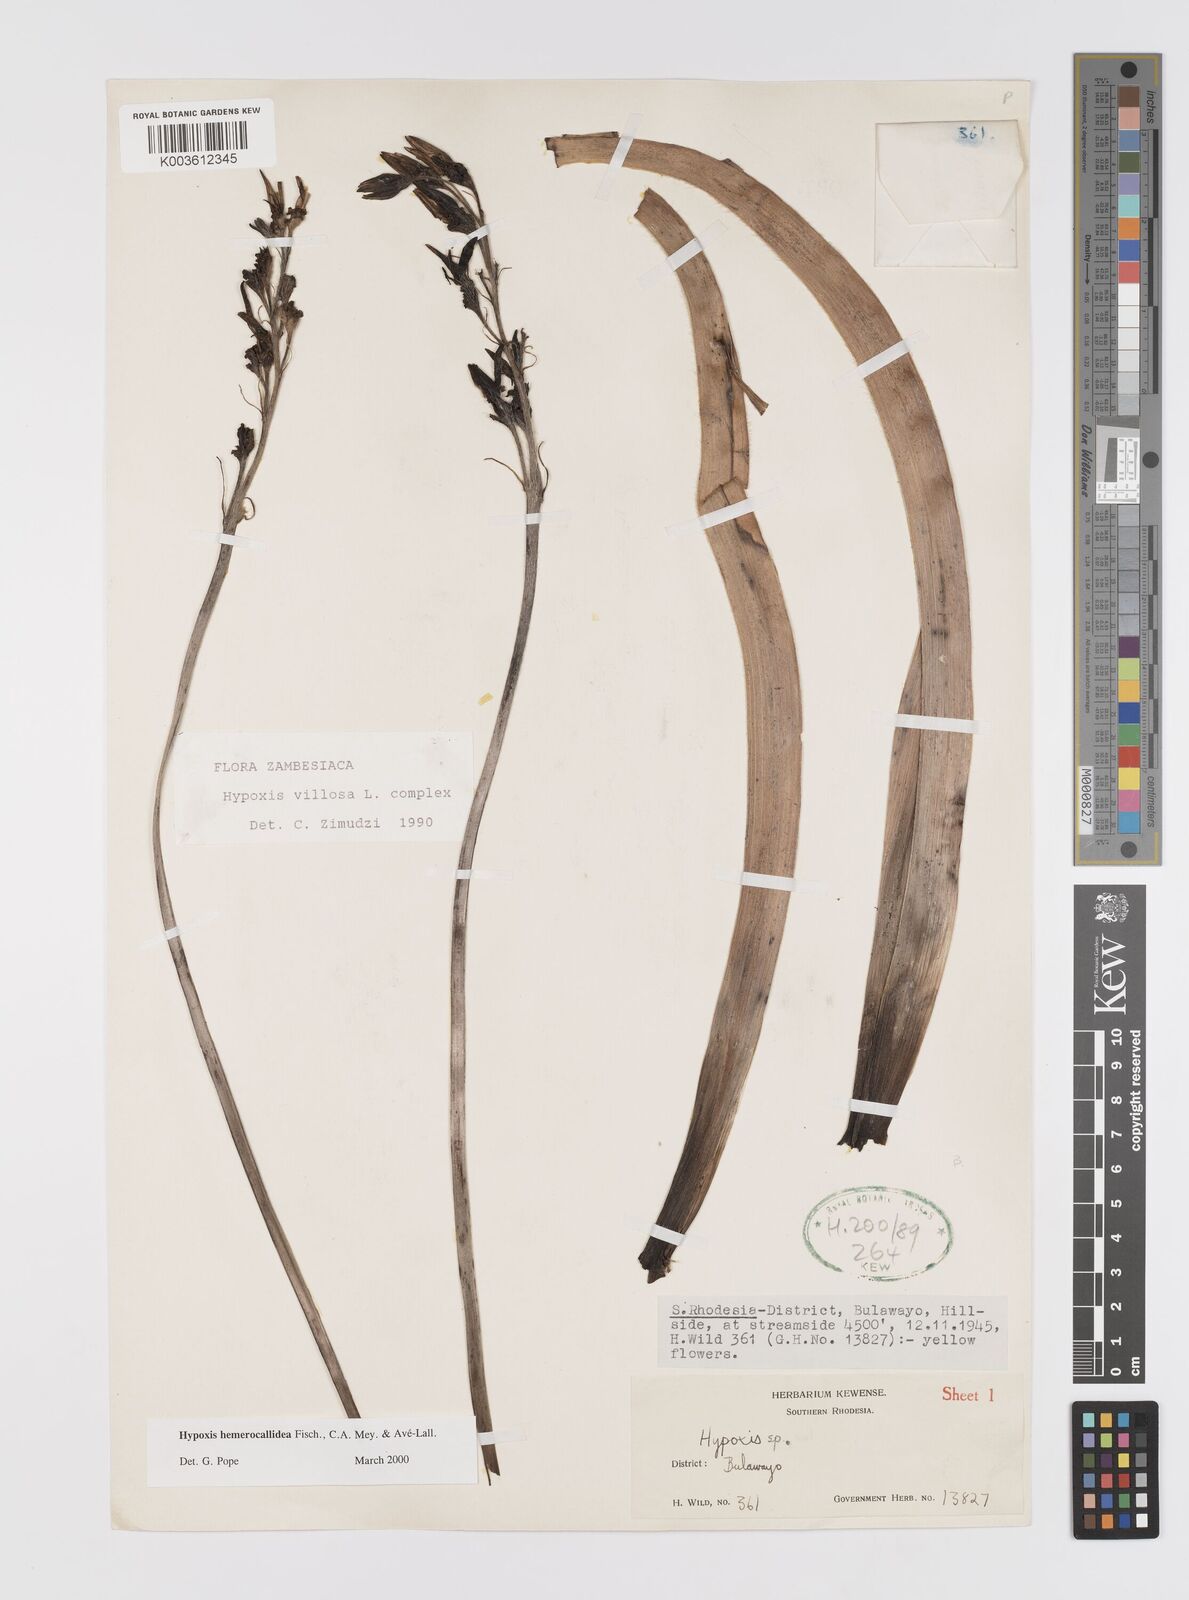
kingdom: Plantae
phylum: Tracheophyta
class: Liliopsida
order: Asparagales
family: Hypoxidaceae
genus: Hypoxis
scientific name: Hypoxis hemerocallidea
